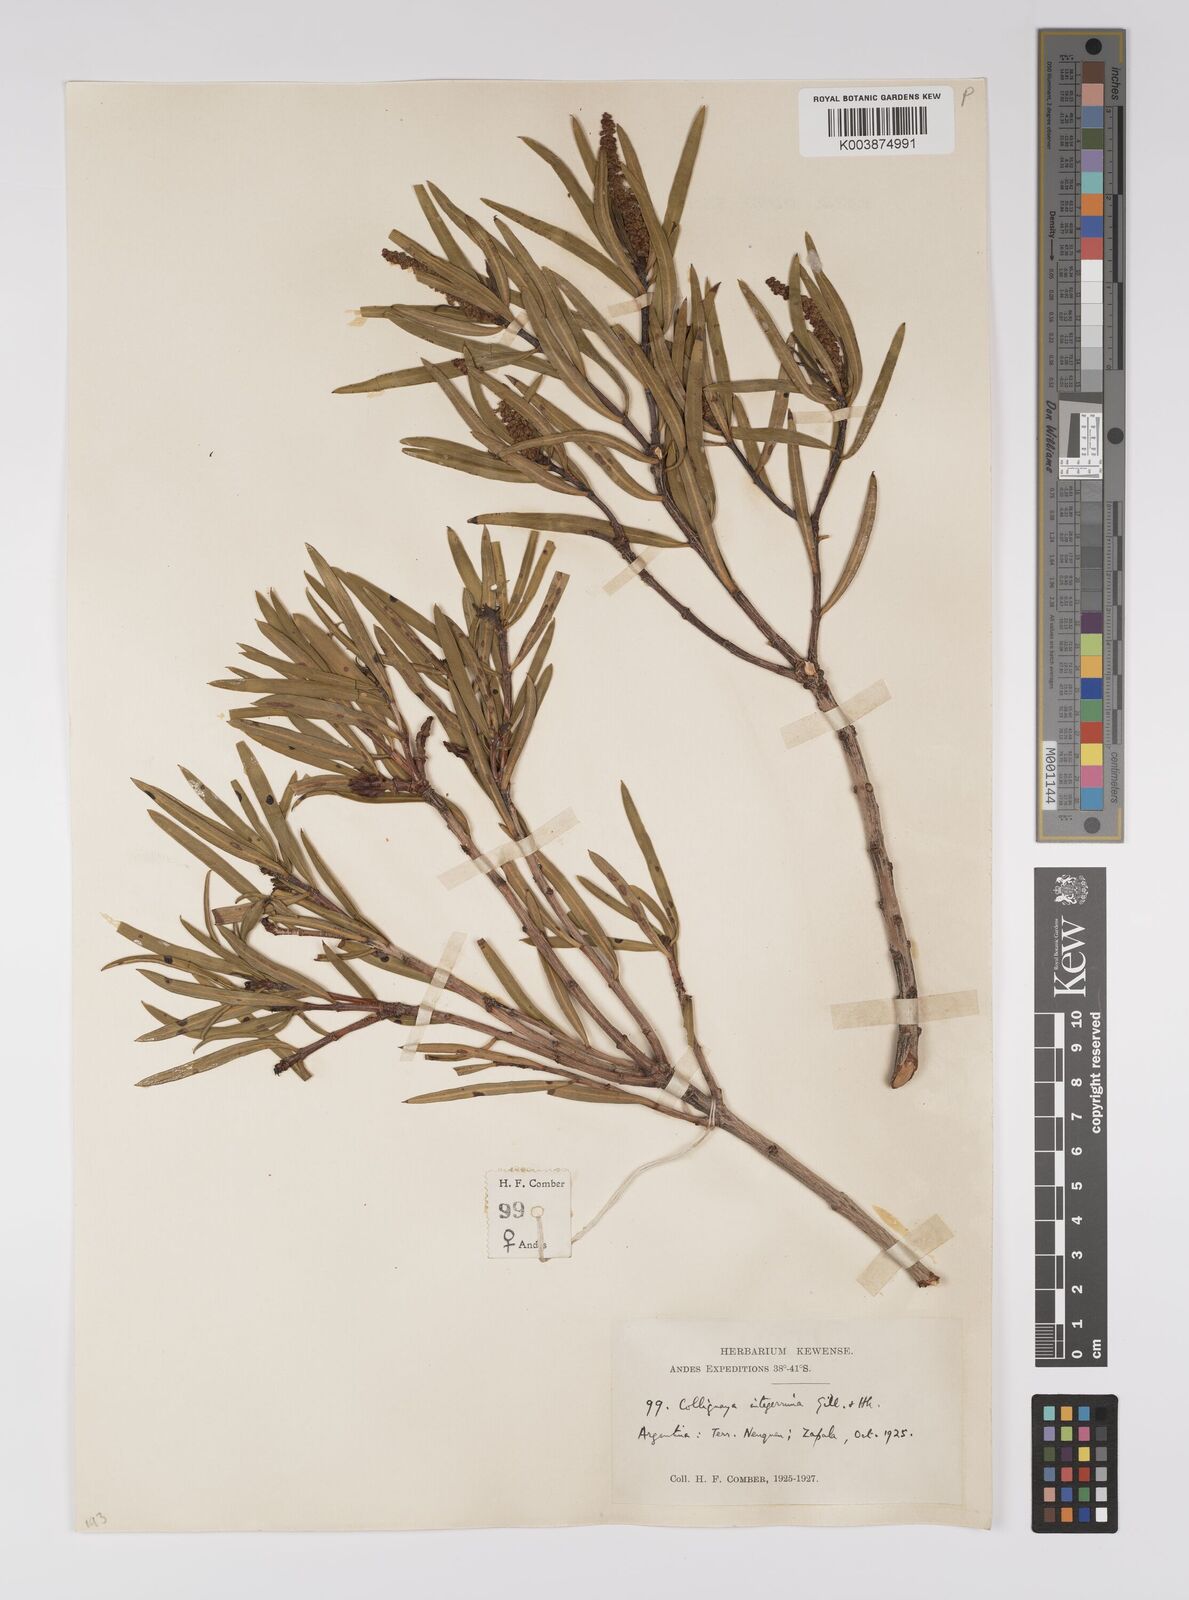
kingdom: Plantae
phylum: Tracheophyta
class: Magnoliopsida
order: Malpighiales
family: Euphorbiaceae
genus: Colliguaja
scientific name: Colliguaja integerrima
